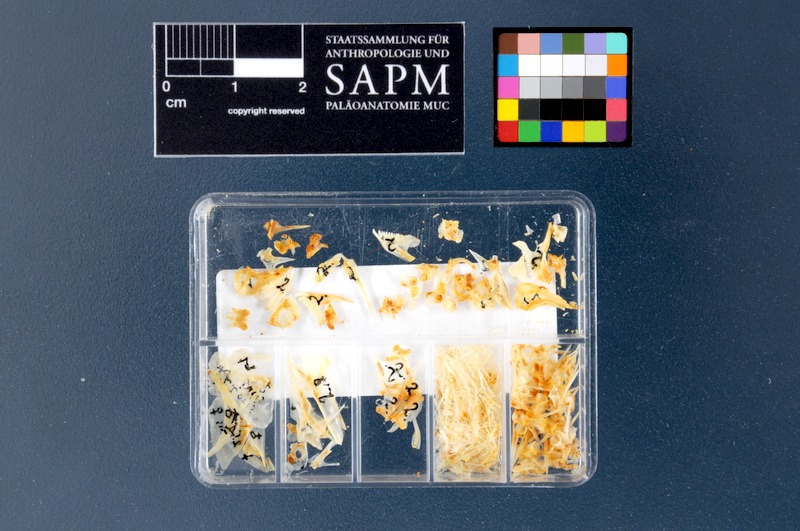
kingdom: Animalia
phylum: Chordata
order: Perciformes
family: Labridae
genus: Coris
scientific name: Coris julis
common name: Rainbow wrasse
